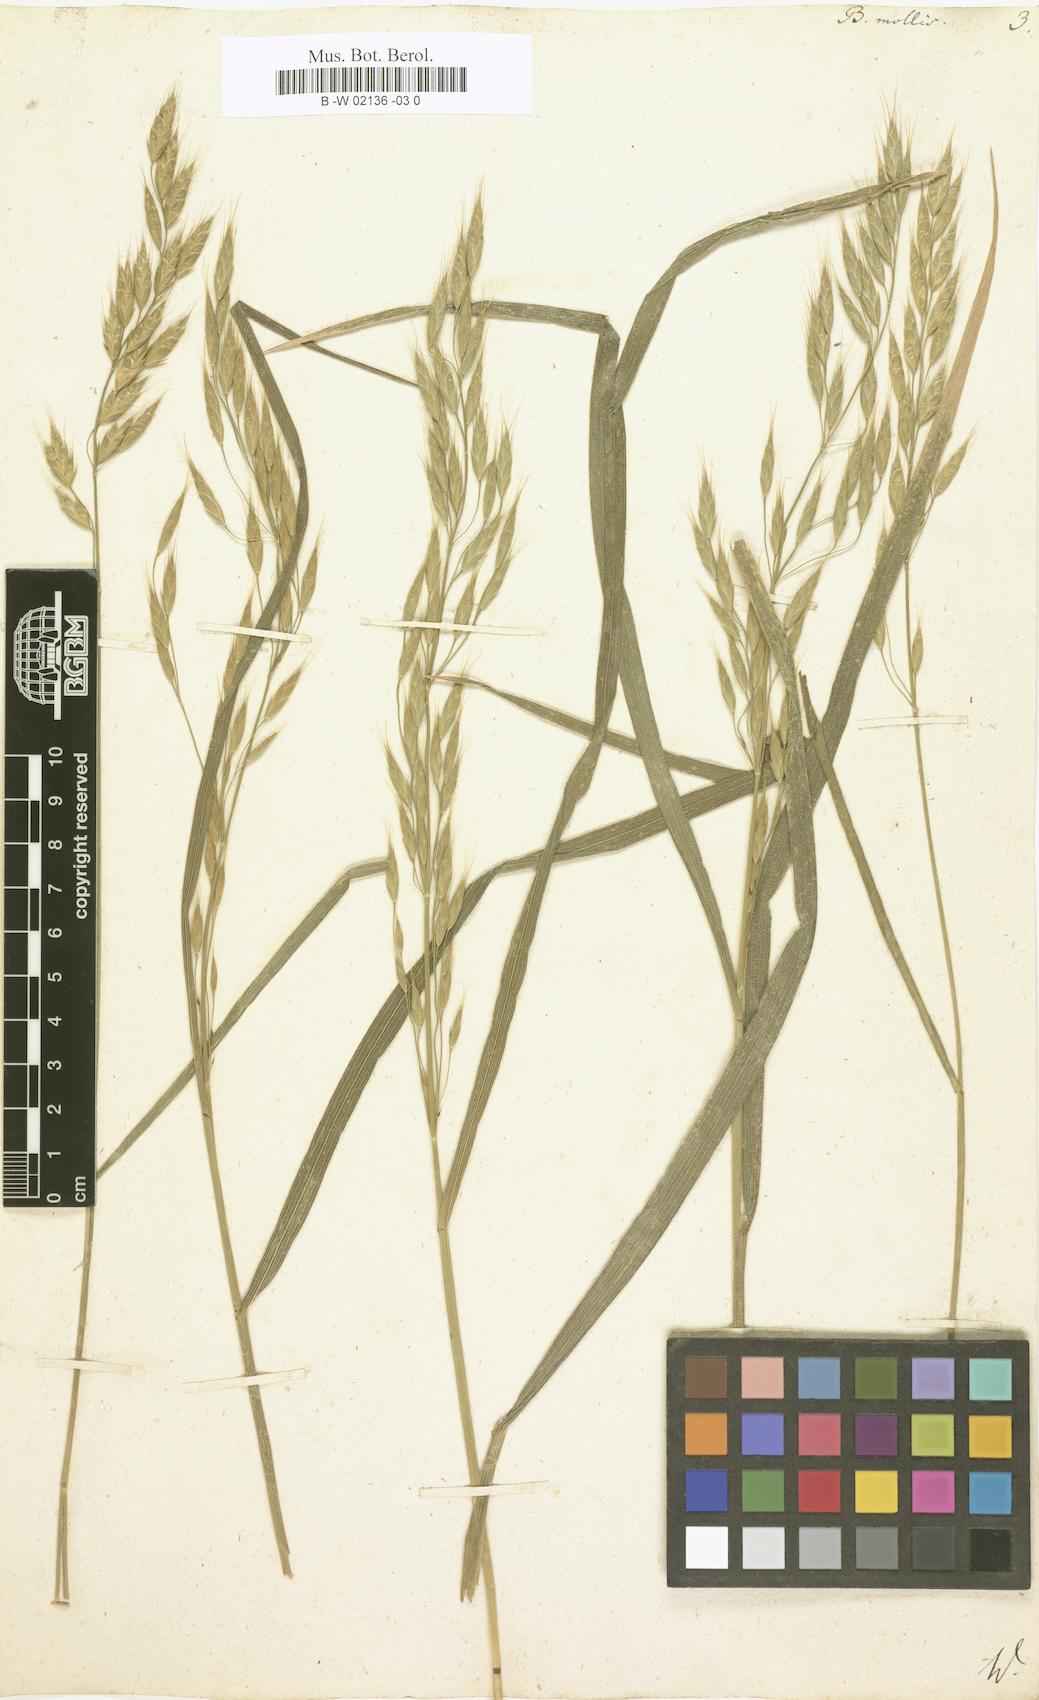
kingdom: Plantae
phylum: Tracheophyta
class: Liliopsida
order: Poales
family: Poaceae
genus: Bromus
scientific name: Bromus hordeaceus
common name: Soft brome
